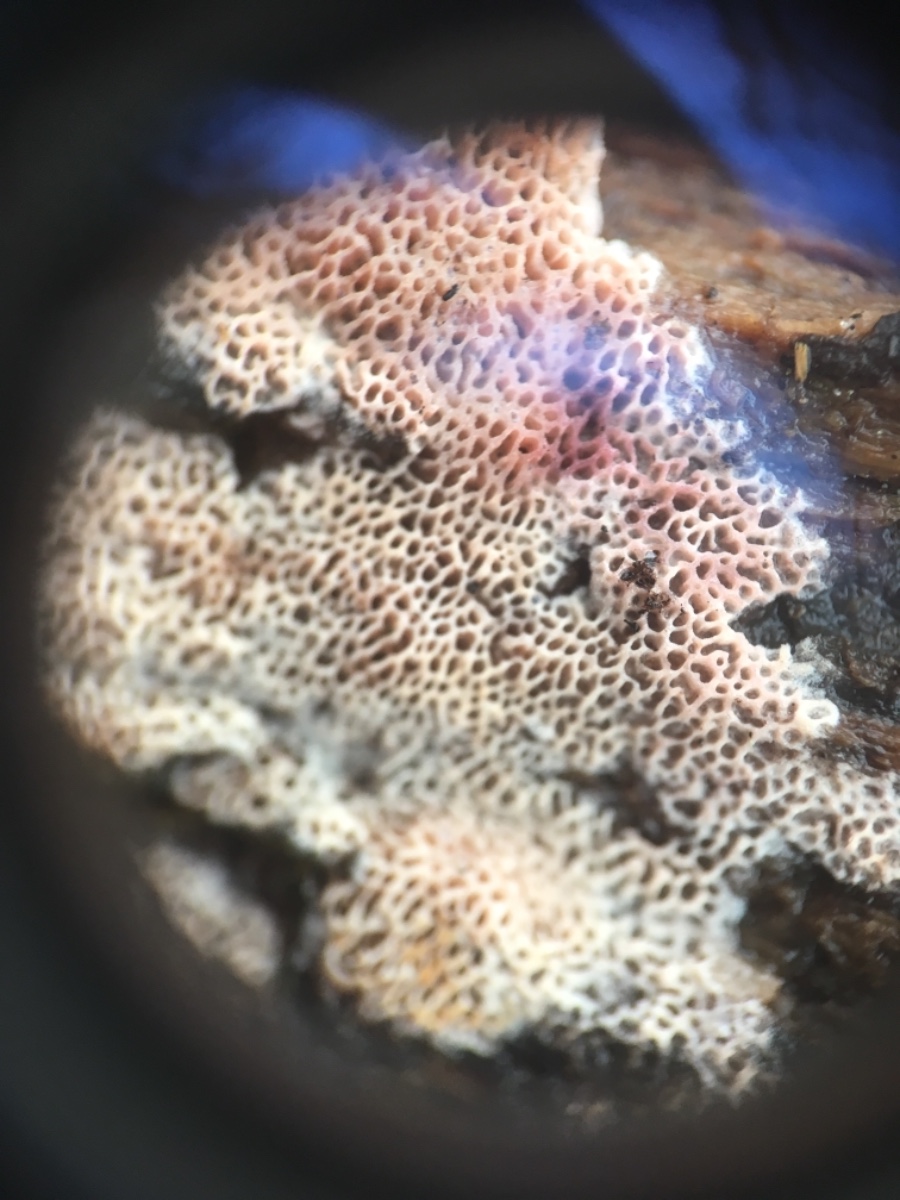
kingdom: Fungi
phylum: Basidiomycota
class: Agaricomycetes
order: Polyporales
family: Irpicaceae
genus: Ceriporia
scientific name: Ceriporia
